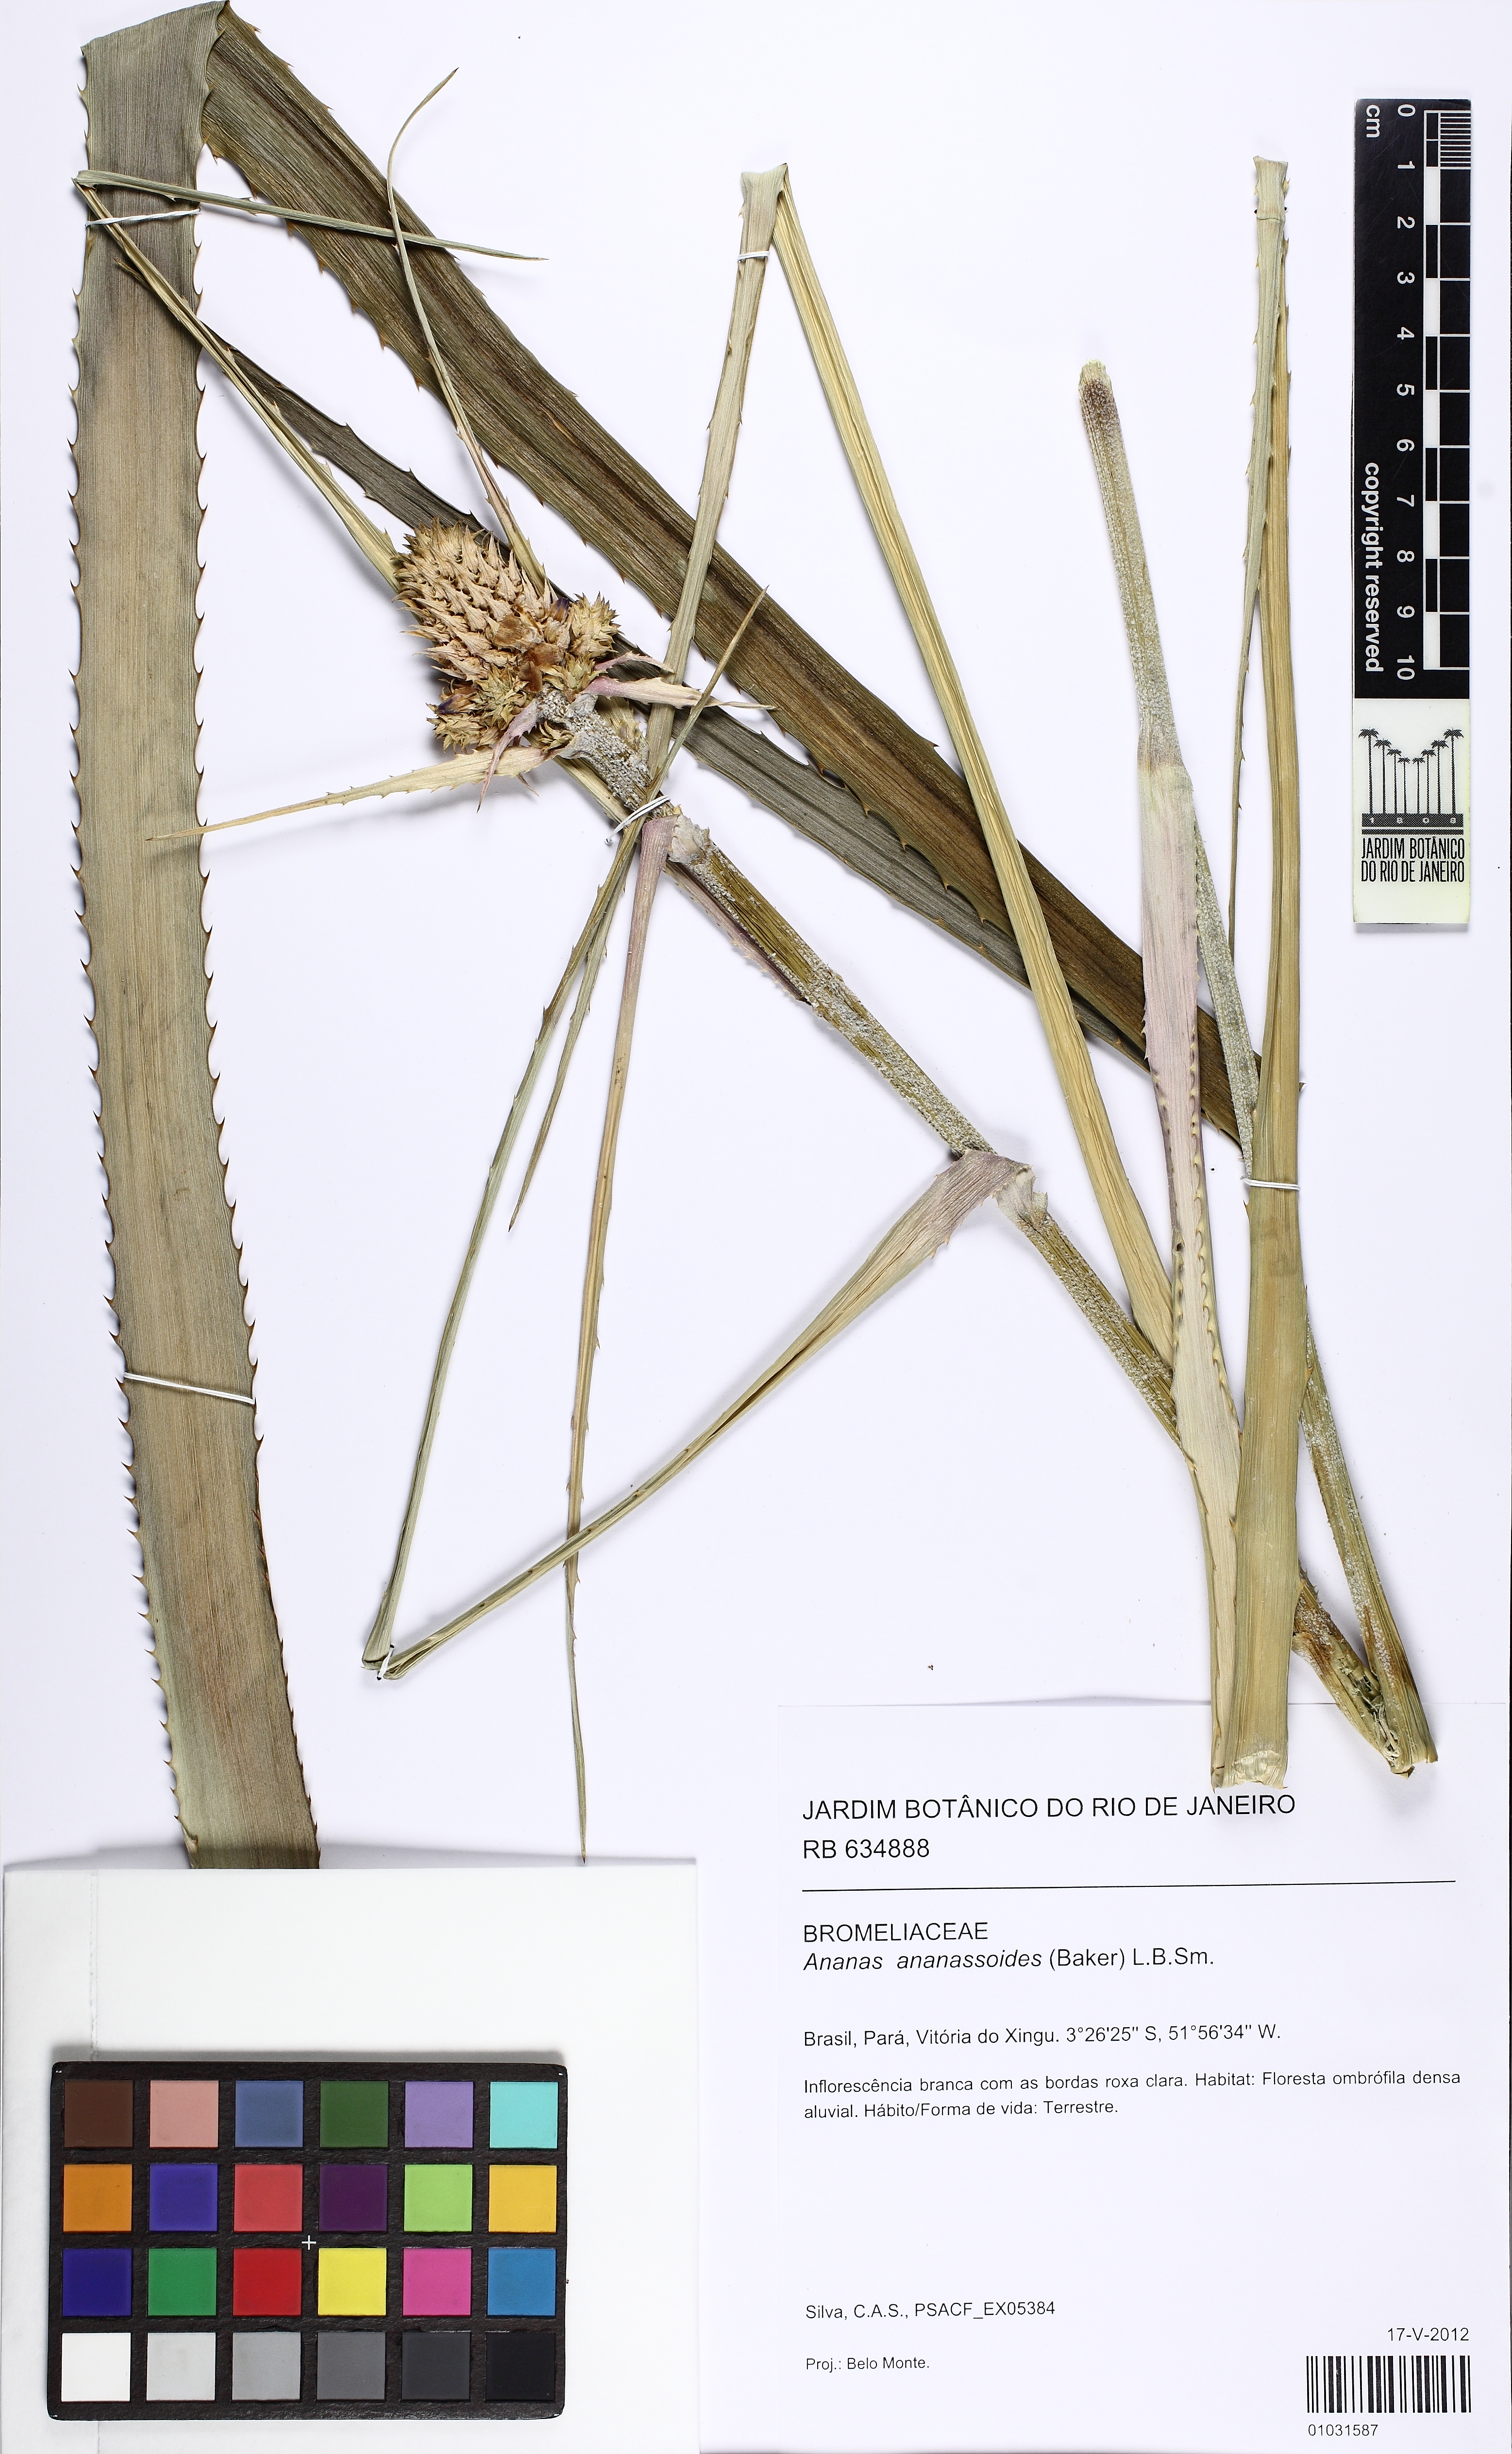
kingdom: Plantae
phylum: Tracheophyta
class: Liliopsida
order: Poales
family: Bromeliaceae
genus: Ananas
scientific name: Ananas comosus
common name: Pineapple
